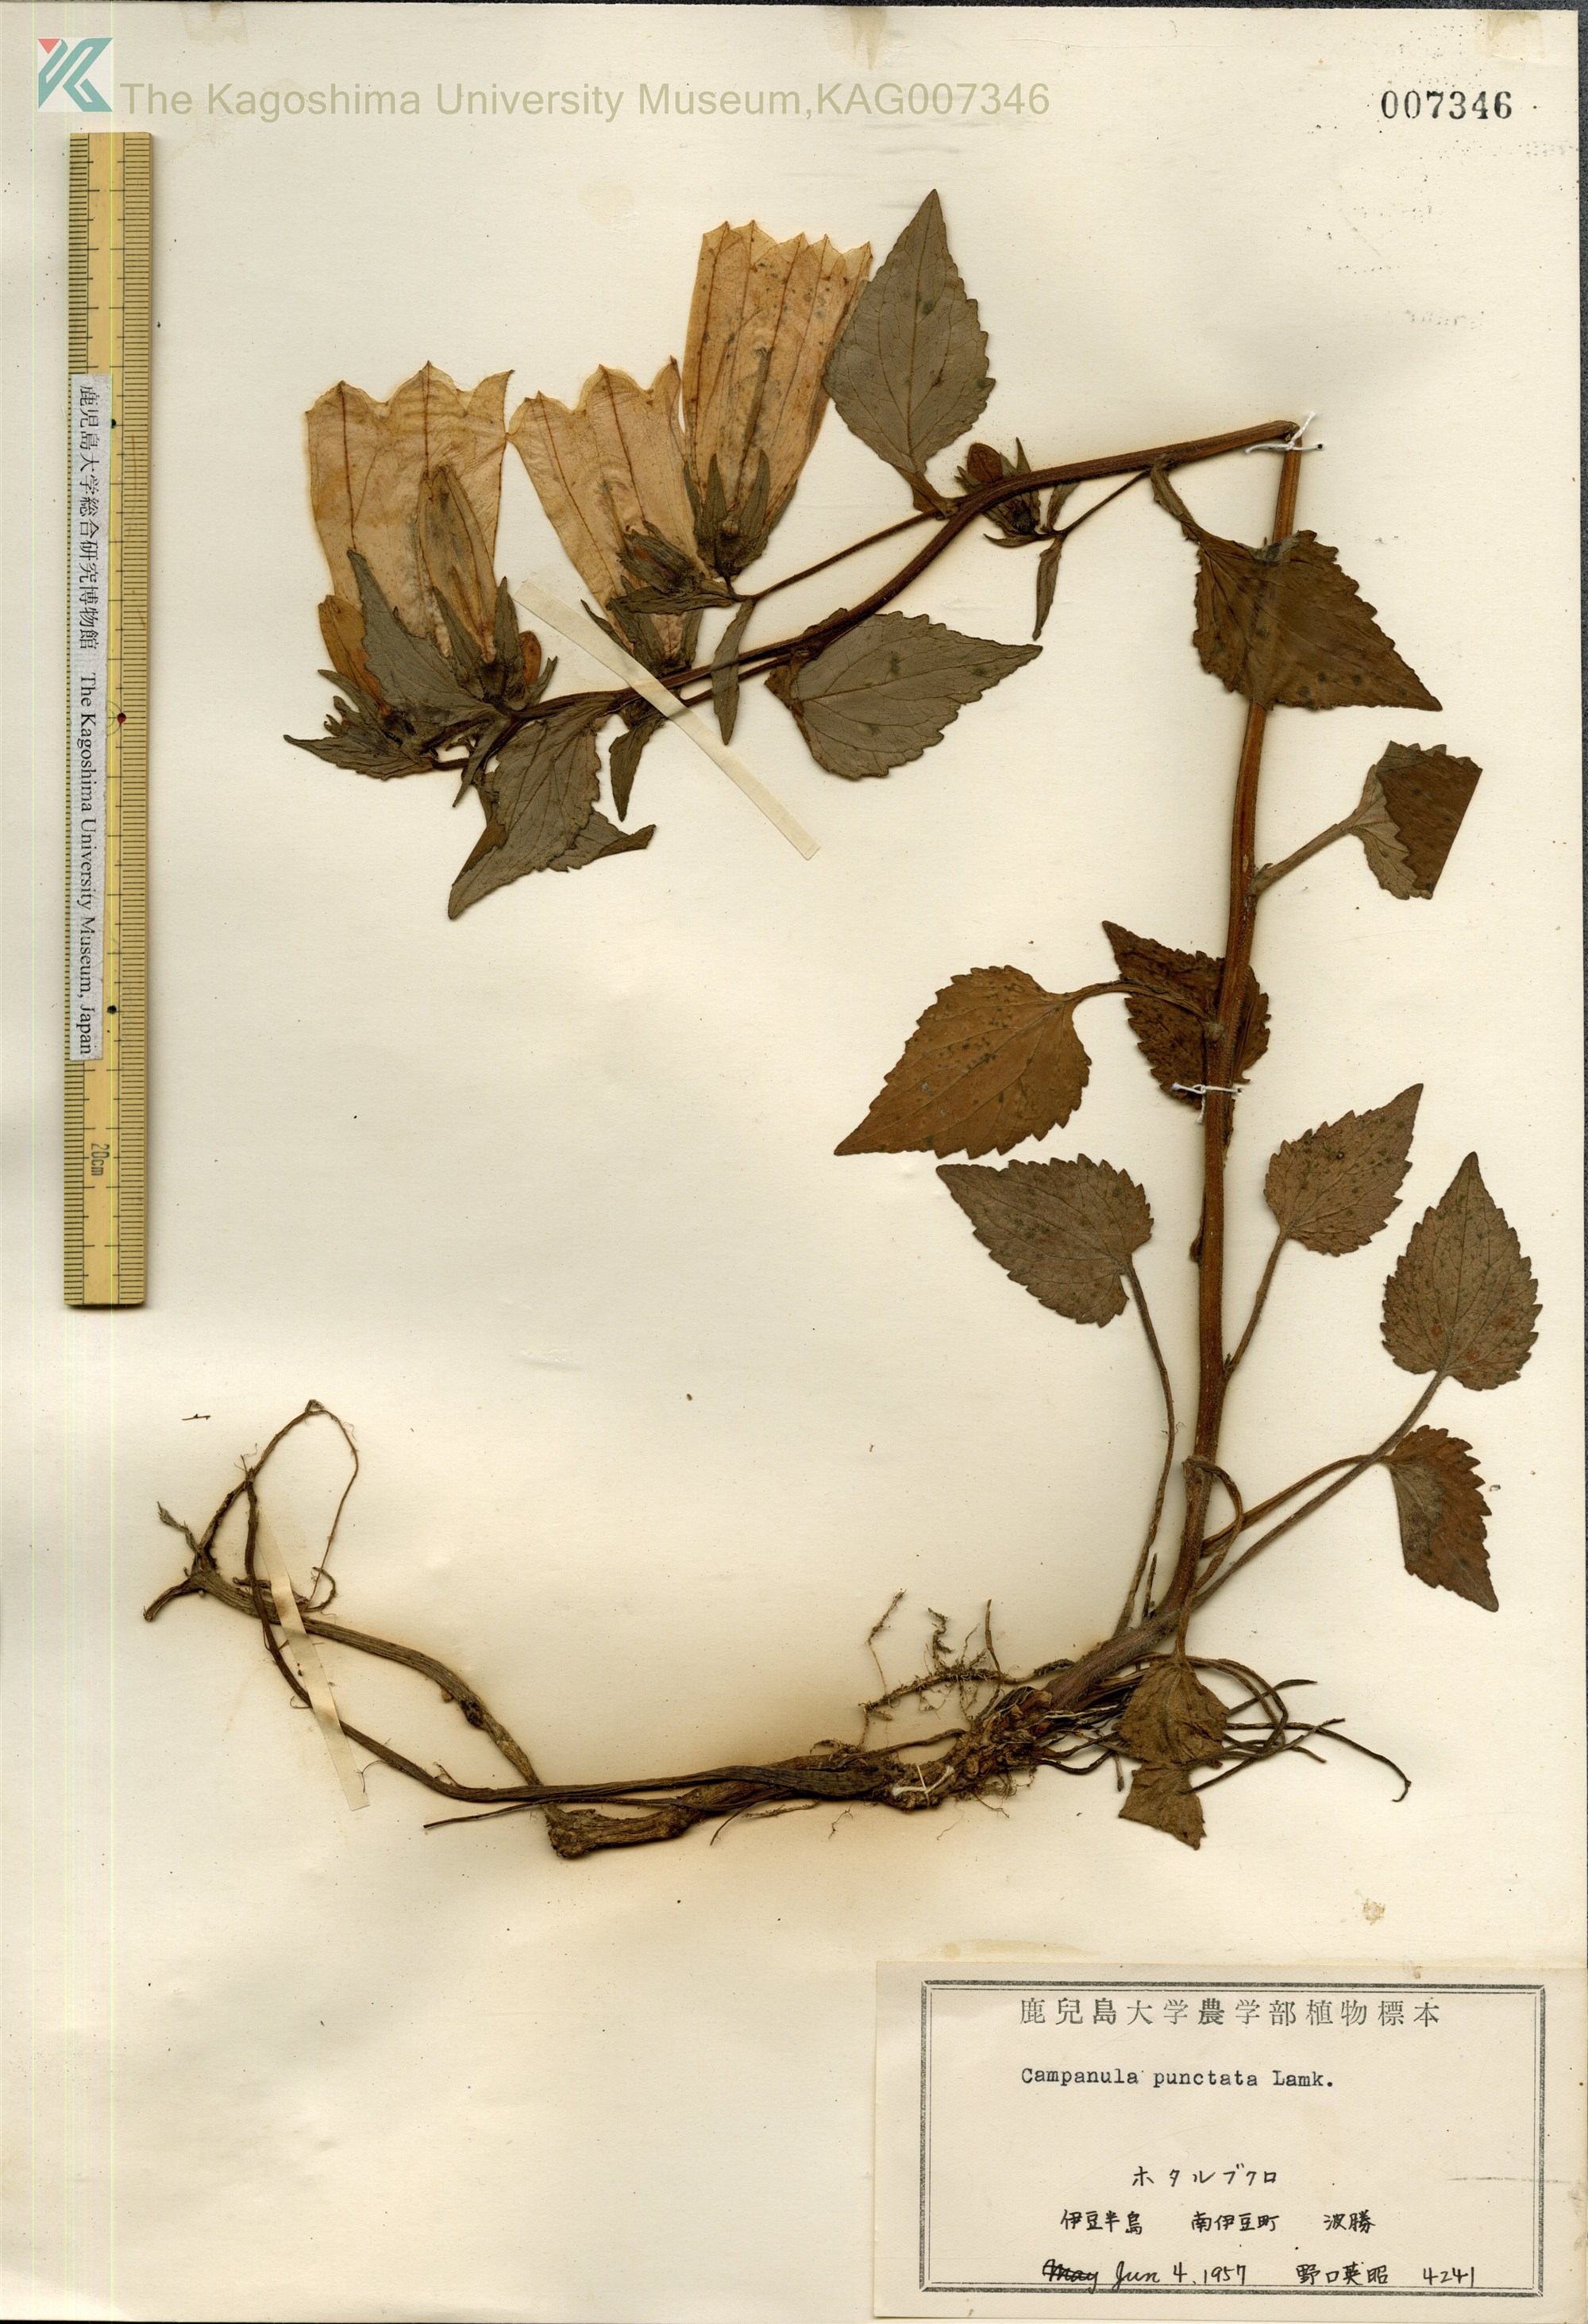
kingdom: Plantae
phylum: Tracheophyta
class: Magnoliopsida
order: Asterales
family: Campanulaceae
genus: Campanula
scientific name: Campanula punctata
